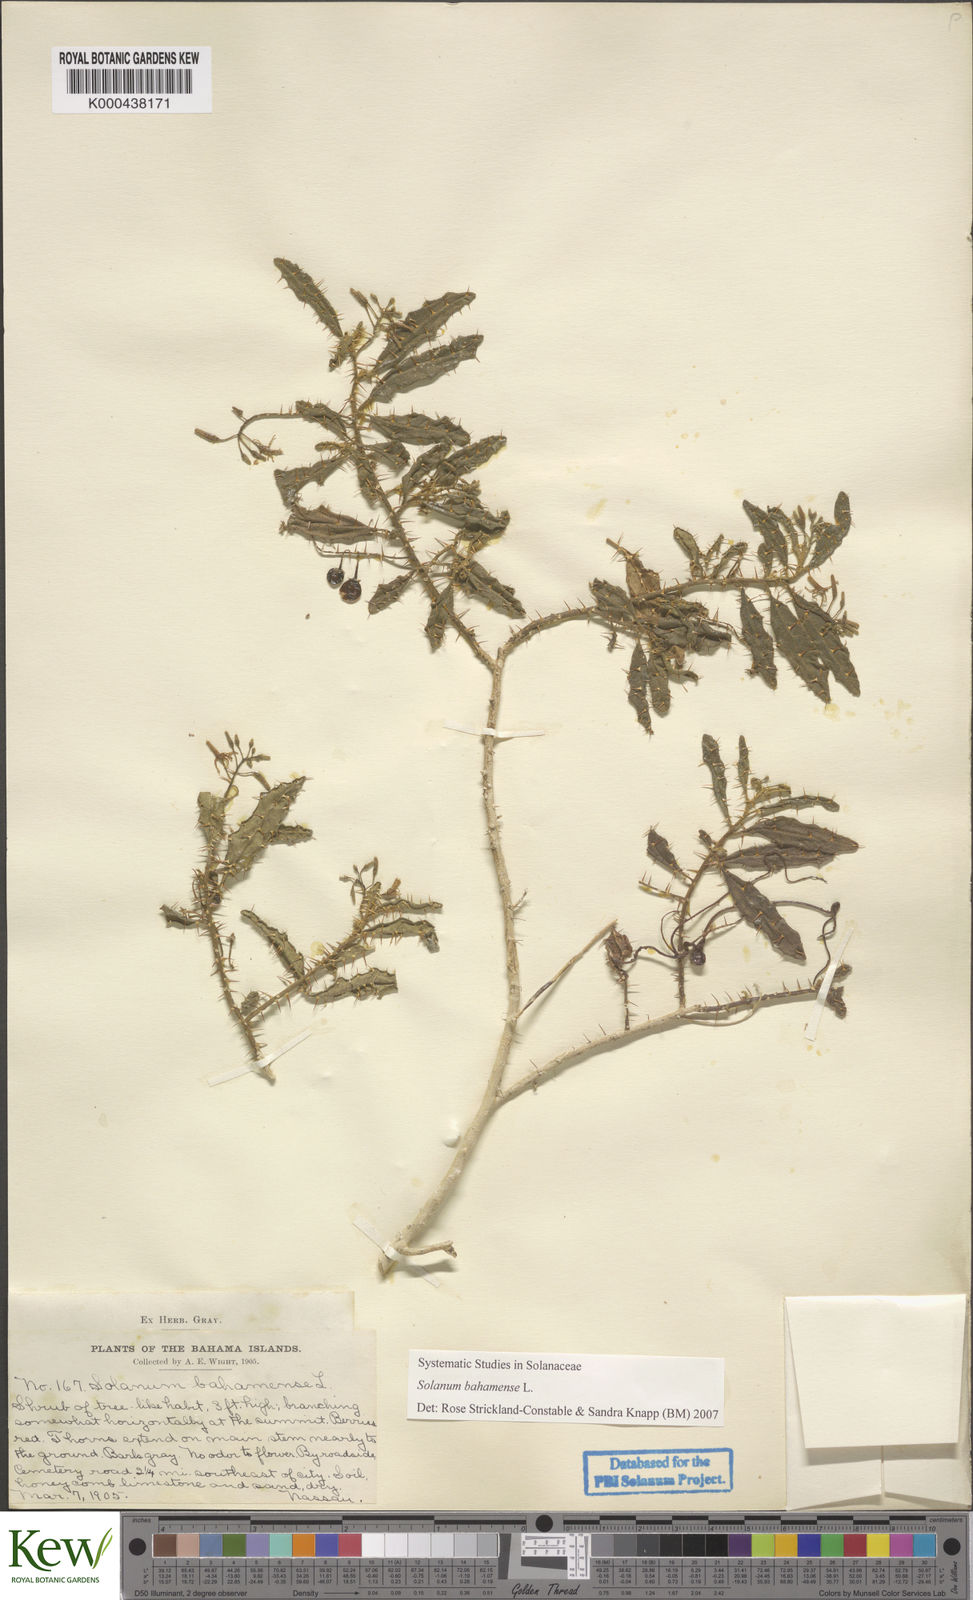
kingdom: Plantae
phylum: Tracheophyta
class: Magnoliopsida
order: Solanales
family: Solanaceae
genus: Solanum
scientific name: Solanum bahamense
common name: Canker-berry
